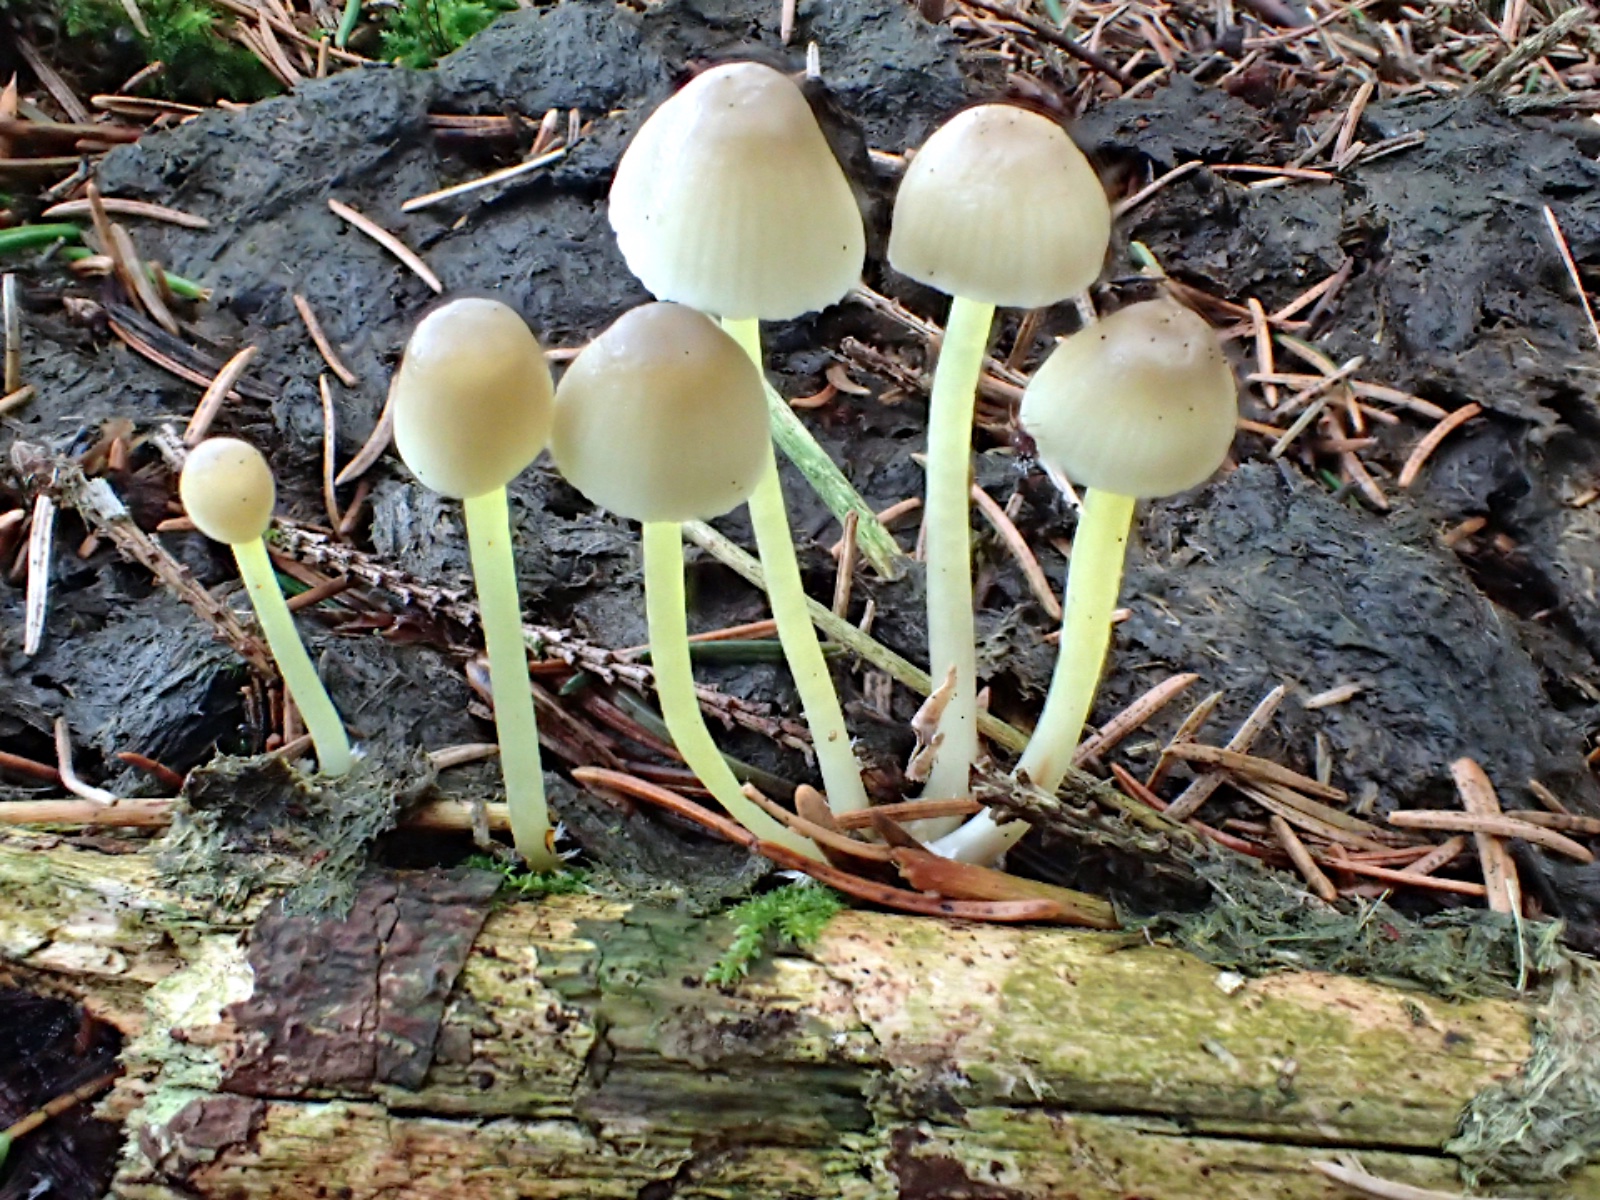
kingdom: Fungi
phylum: Basidiomycota
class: Agaricomycetes
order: Agaricales
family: Mycenaceae
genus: Mycena
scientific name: Mycena epipterygia
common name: gulstokket huesvamp
